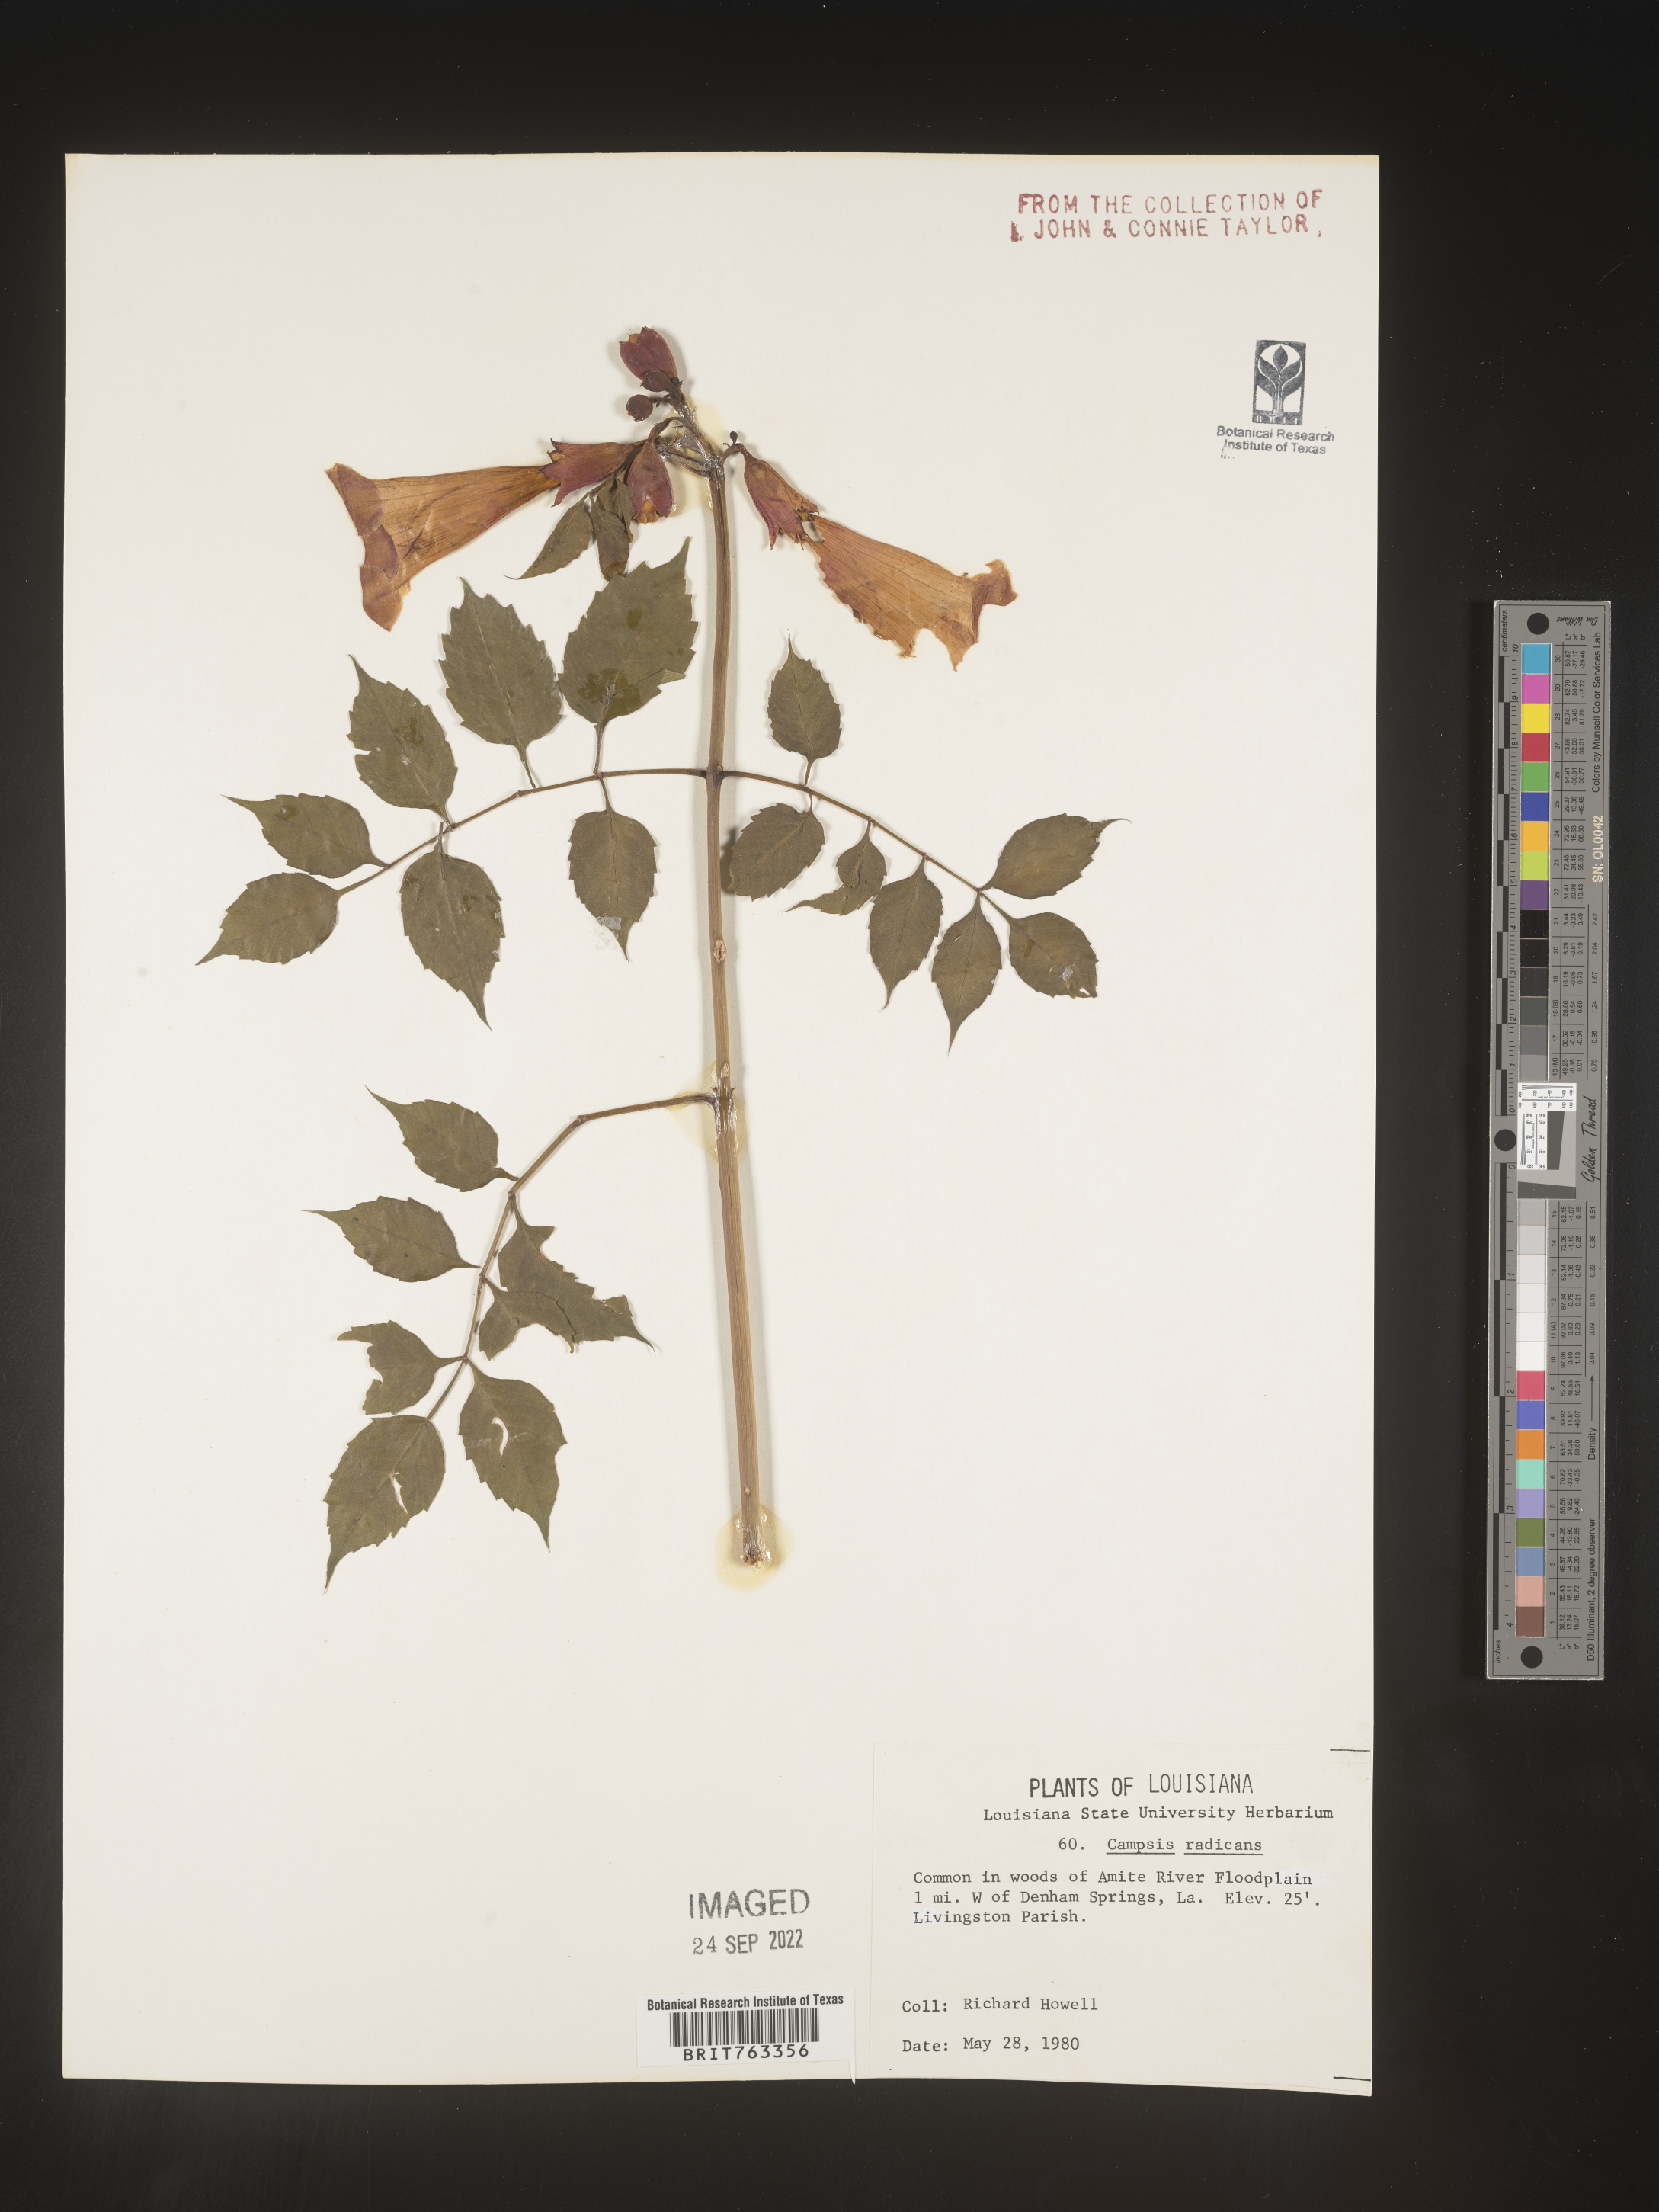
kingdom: Plantae
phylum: Tracheophyta
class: Magnoliopsida
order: Lamiales
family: Bignoniaceae
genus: Campsis
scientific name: Campsis radicans
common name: Trumpet-creeper
